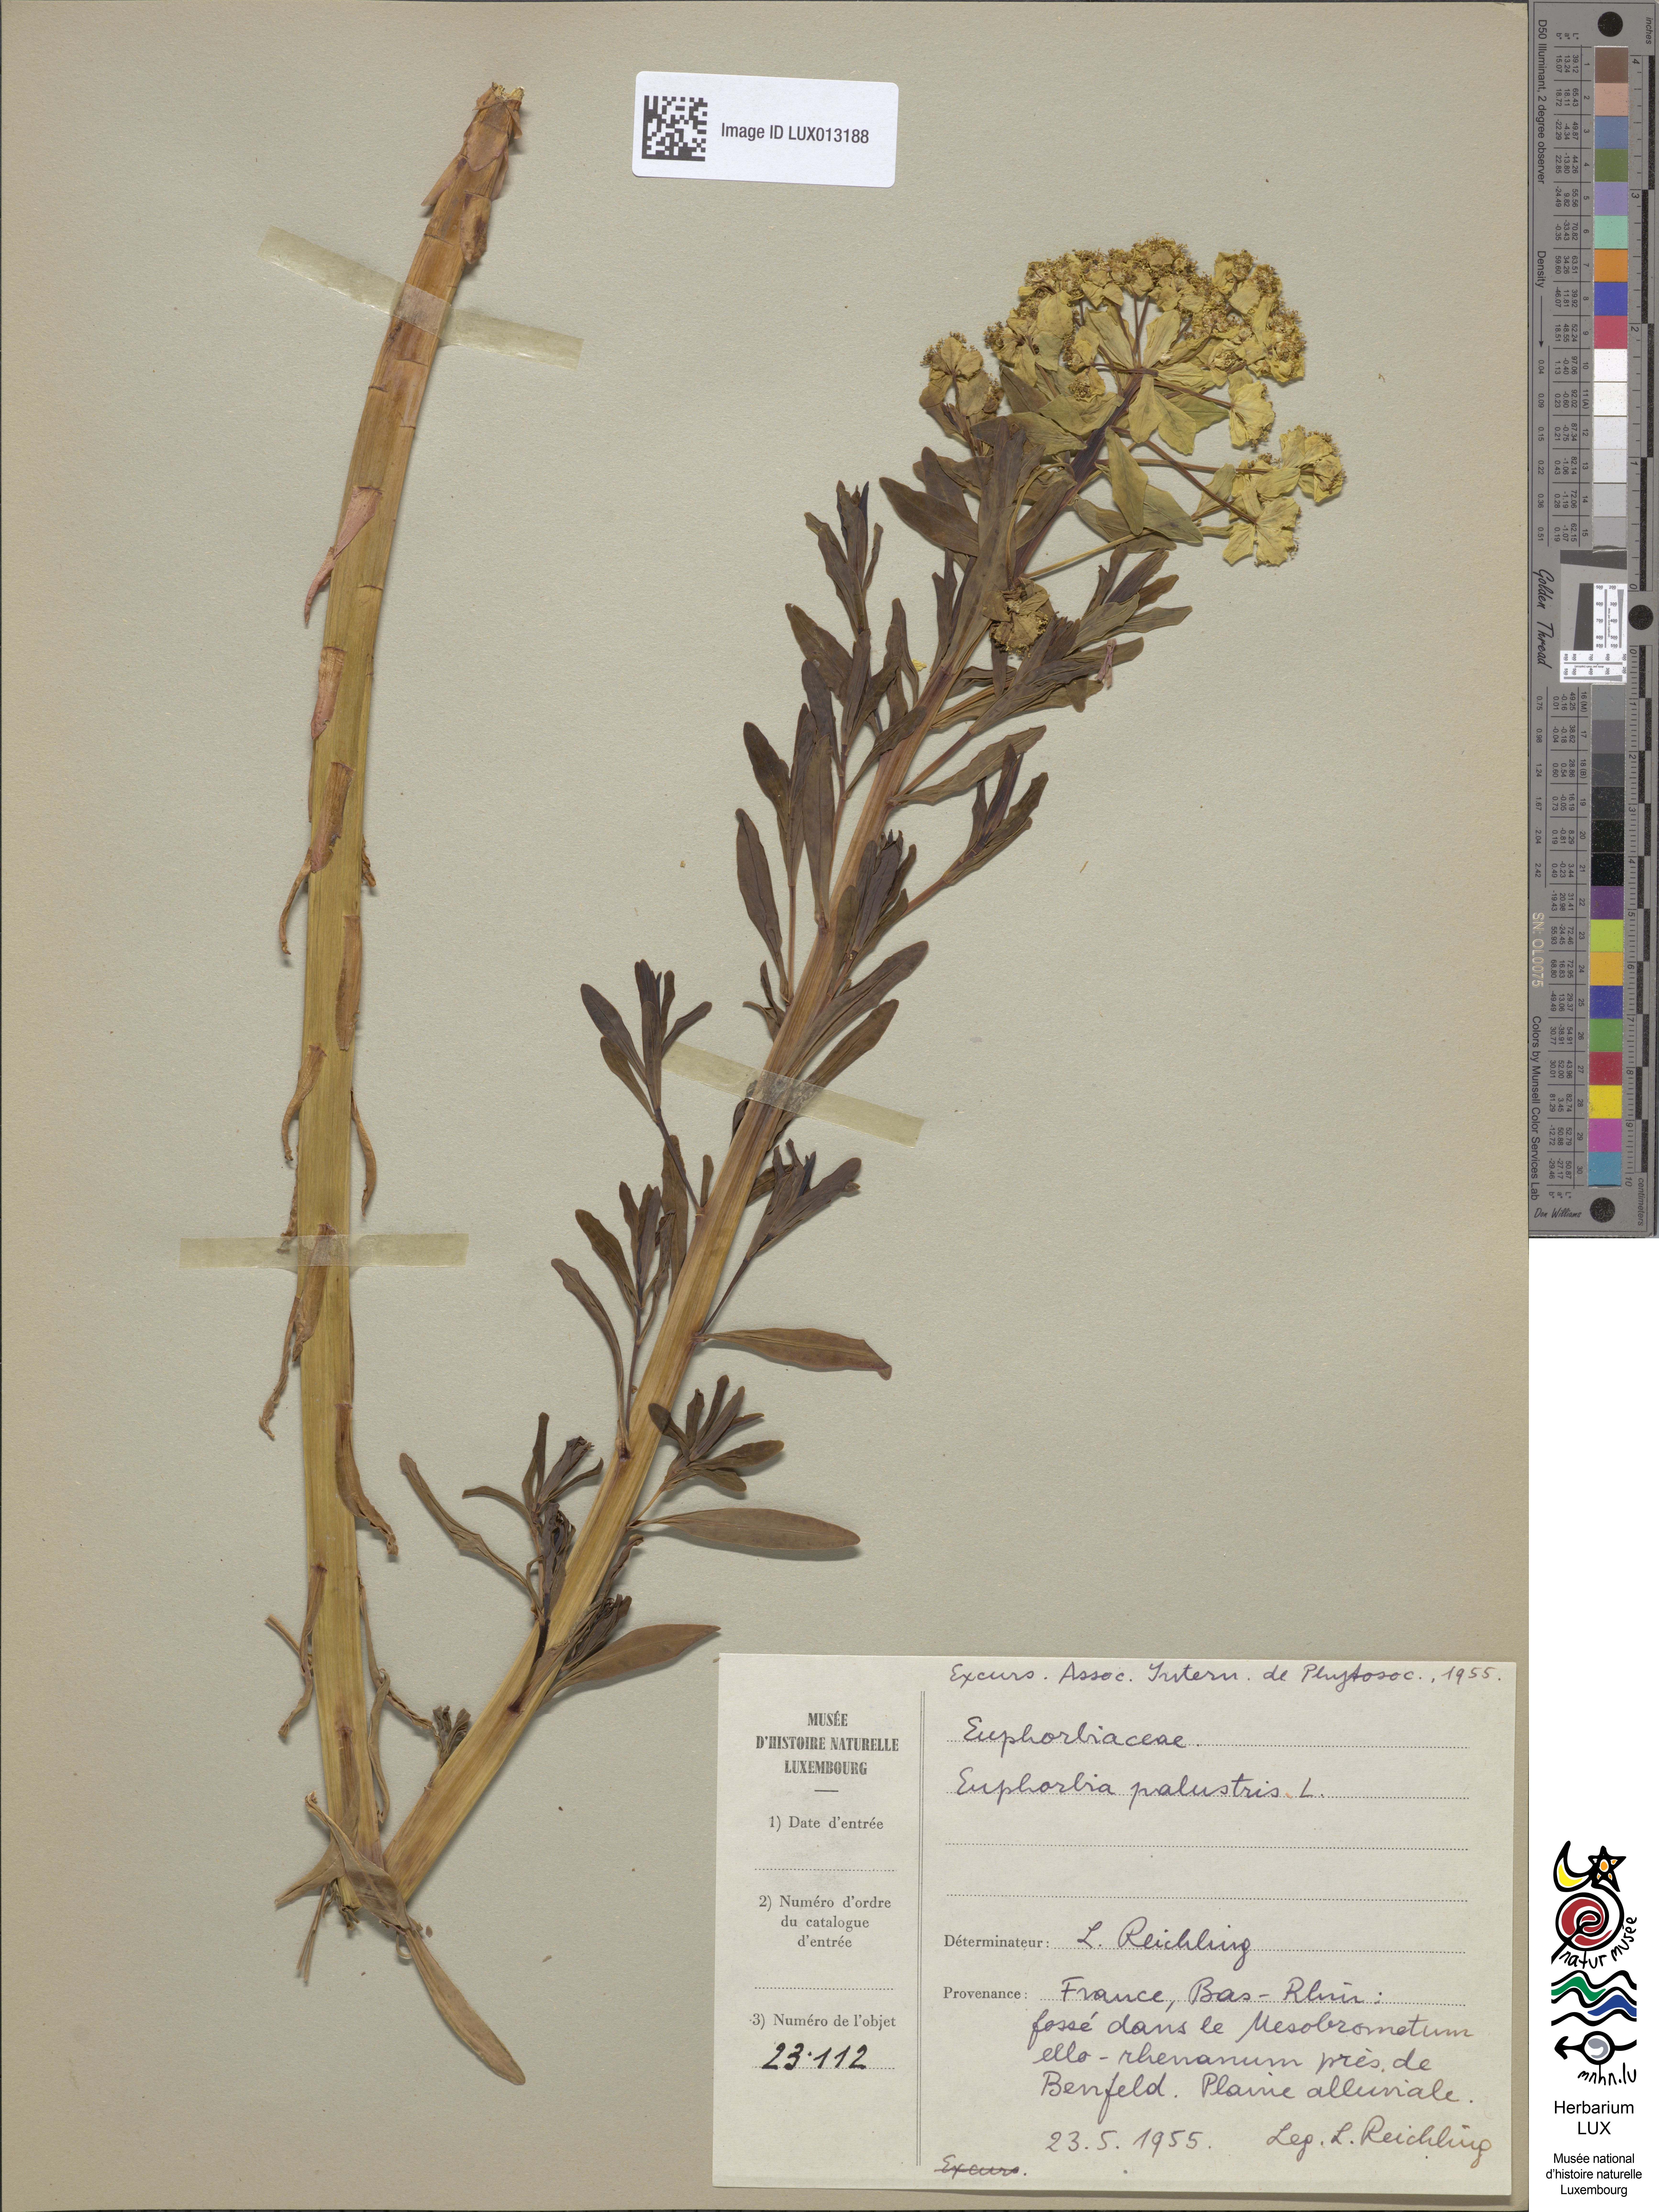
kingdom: Plantae
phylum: Tracheophyta
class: Magnoliopsida
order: Malpighiales
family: Euphorbiaceae
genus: Euphorbia
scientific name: Euphorbia palustris
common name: Marsh spurge
